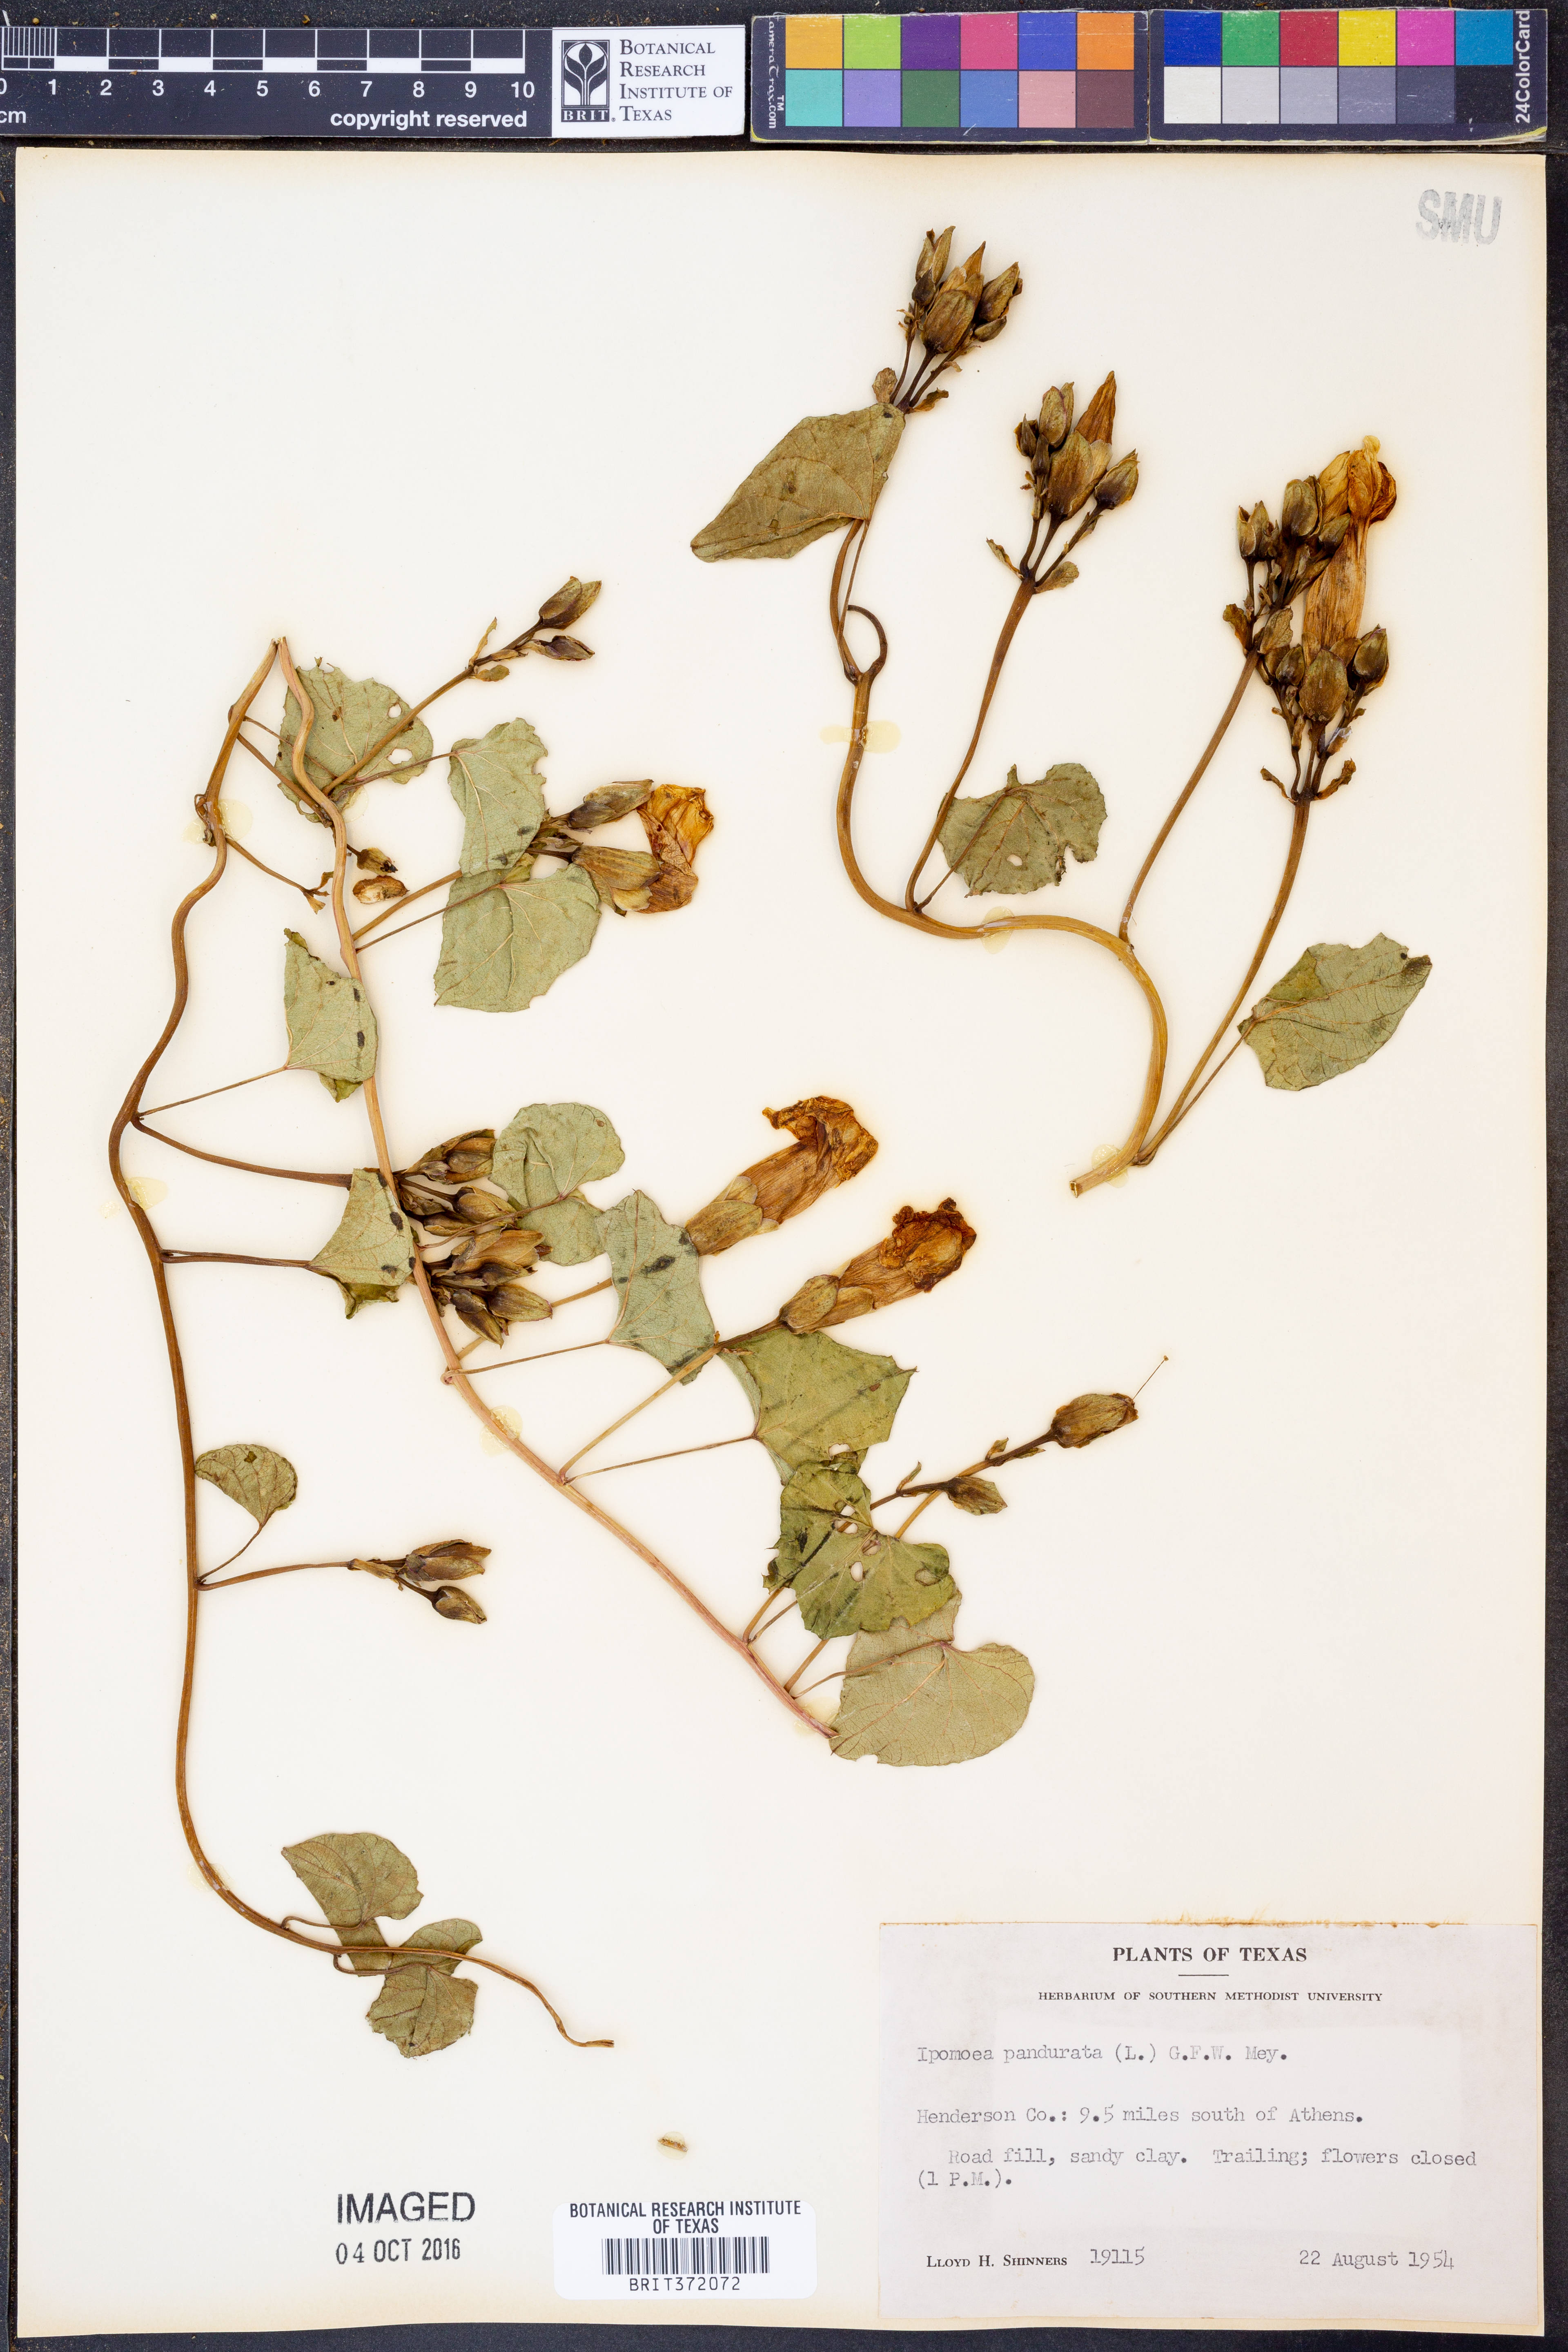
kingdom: Plantae
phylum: Tracheophyta
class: Magnoliopsida
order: Solanales
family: Convolvulaceae
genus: Ipomoea
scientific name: Ipomoea pandurata
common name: Man-of-the-earth
